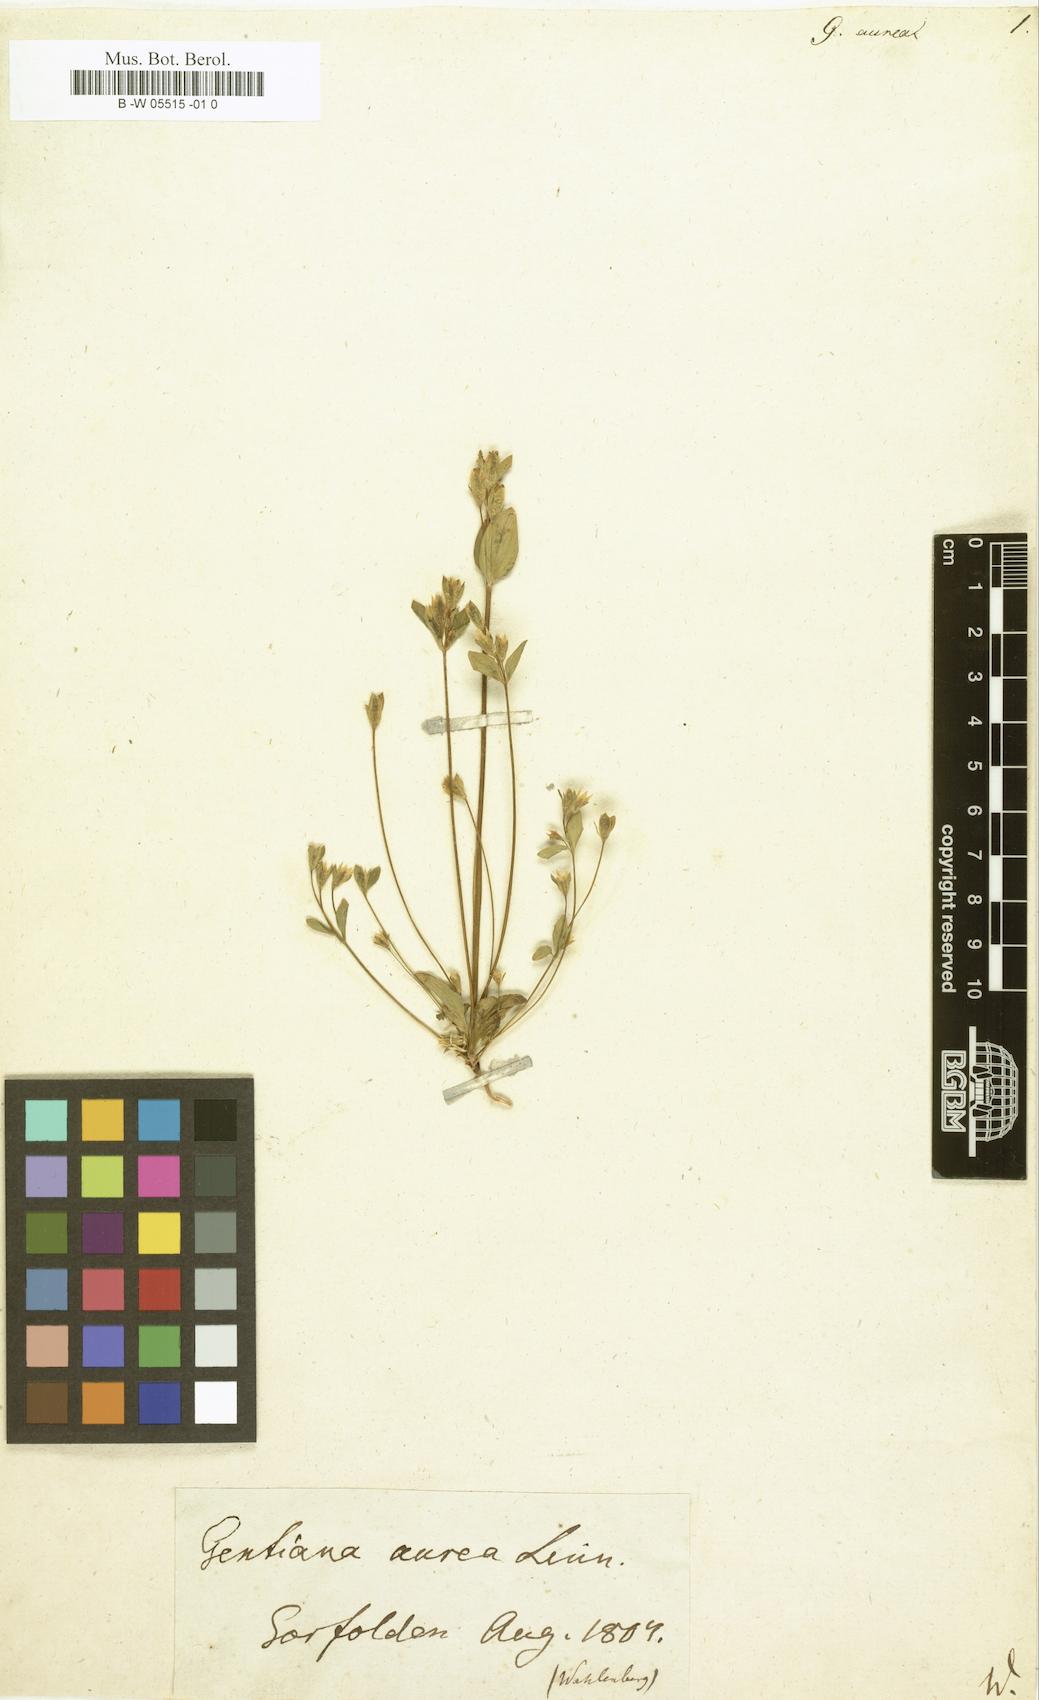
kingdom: Plantae
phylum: Tracheophyta
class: Magnoliopsida
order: Gentianales
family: Gentianaceae
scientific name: Gentianaceae
